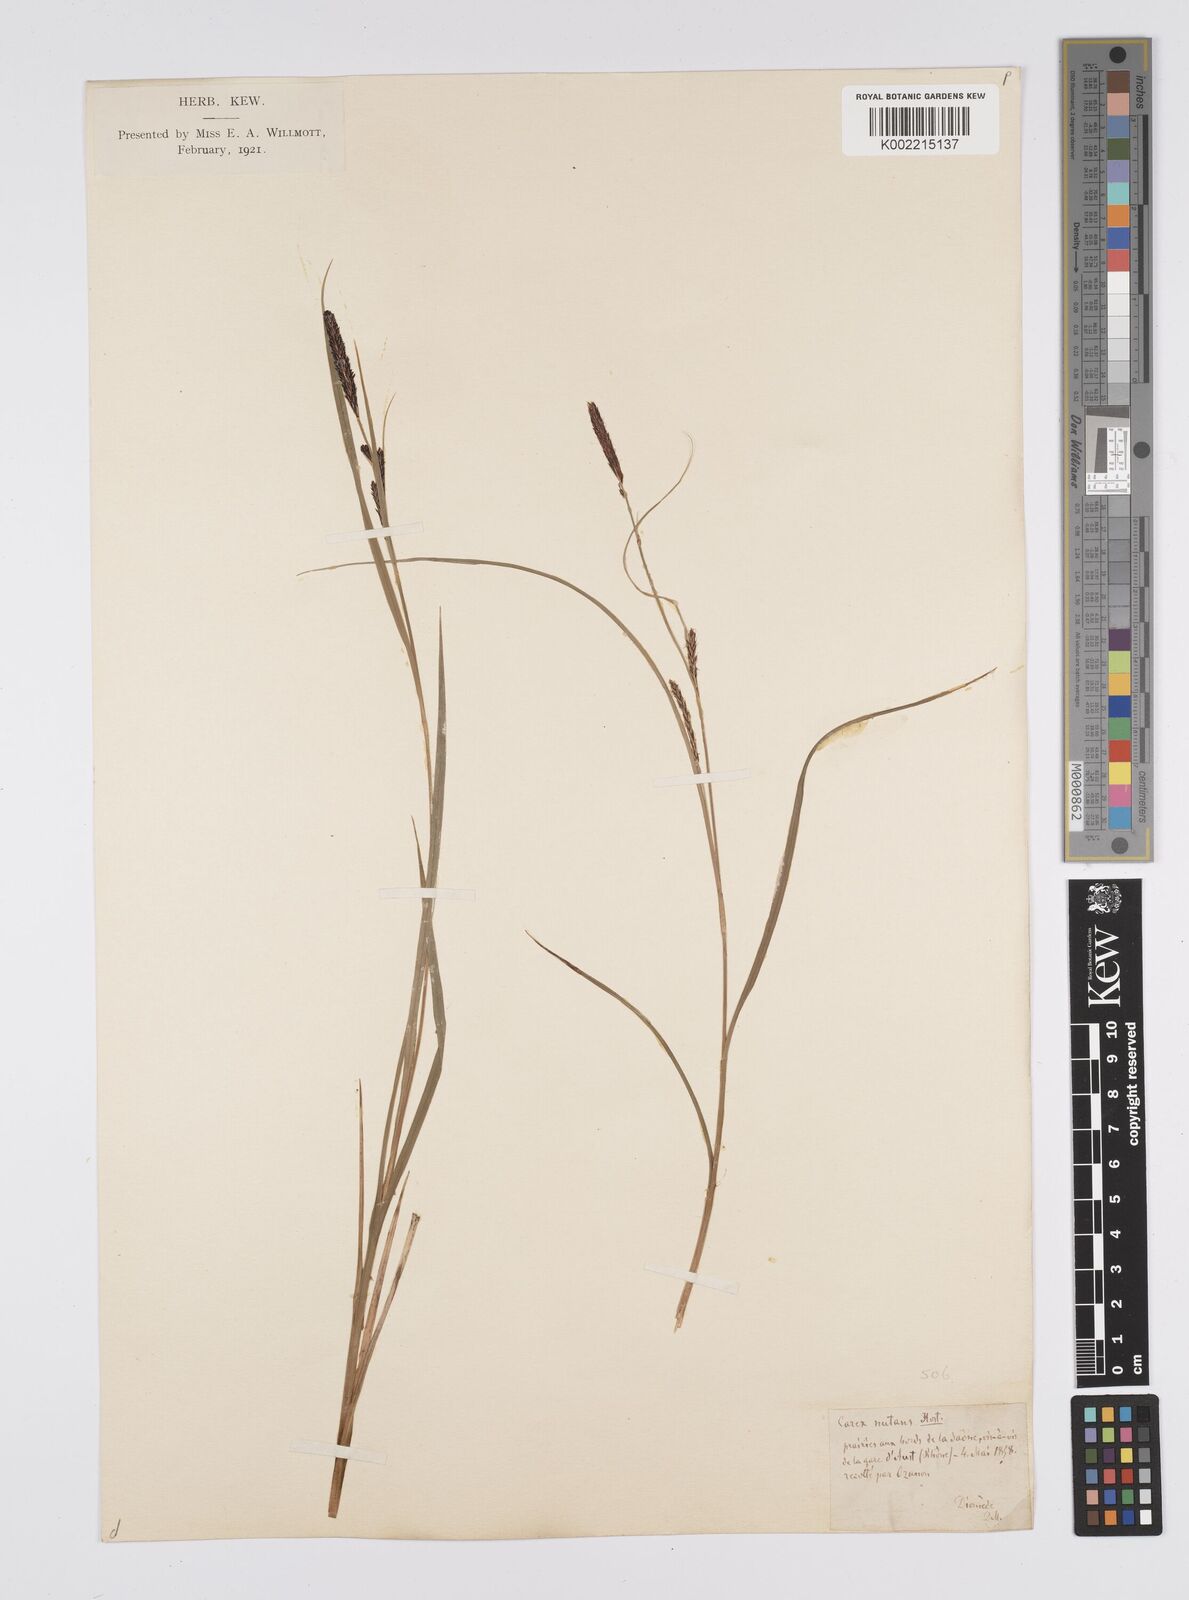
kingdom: Plantae
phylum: Tracheophyta
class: Liliopsida
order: Poales
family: Cyperaceae
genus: Carex
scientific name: Carex melanostachya
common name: Black-spiked sedge
